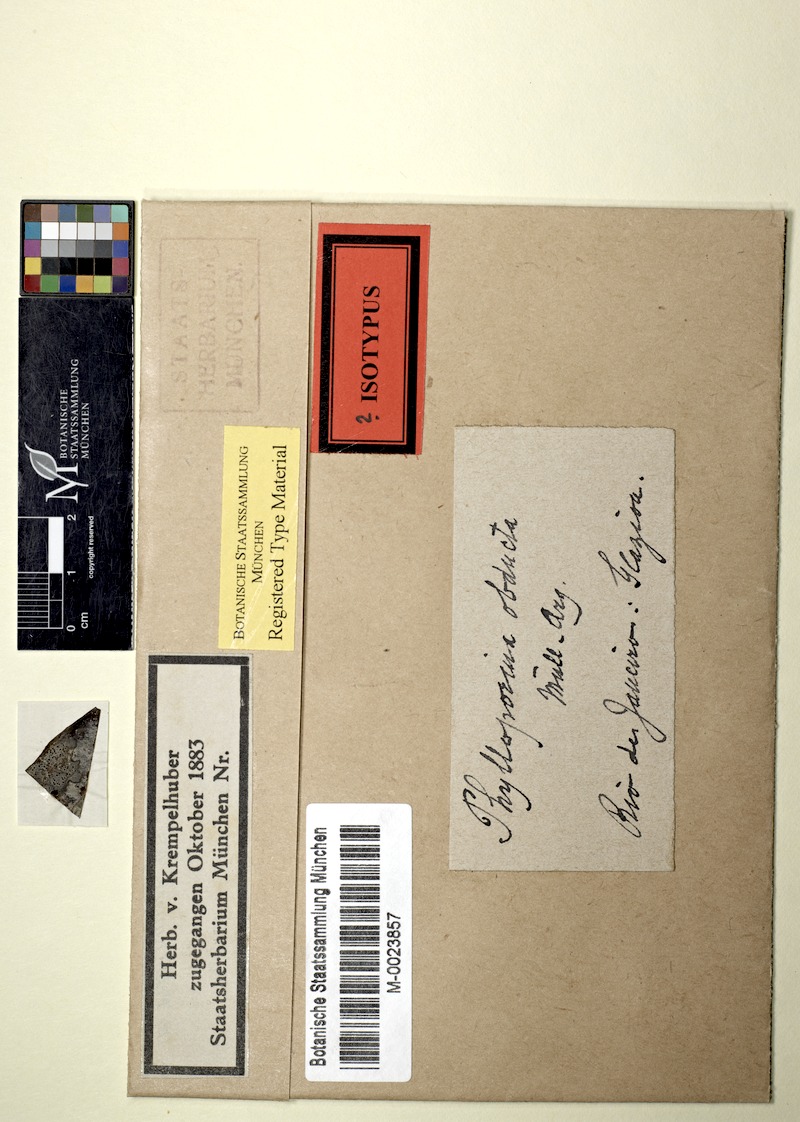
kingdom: Fungi
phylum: Ascomycota
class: Dothideomycetes
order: Strigulales
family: Strigulaceae
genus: Strigula
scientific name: Strigula obducta
